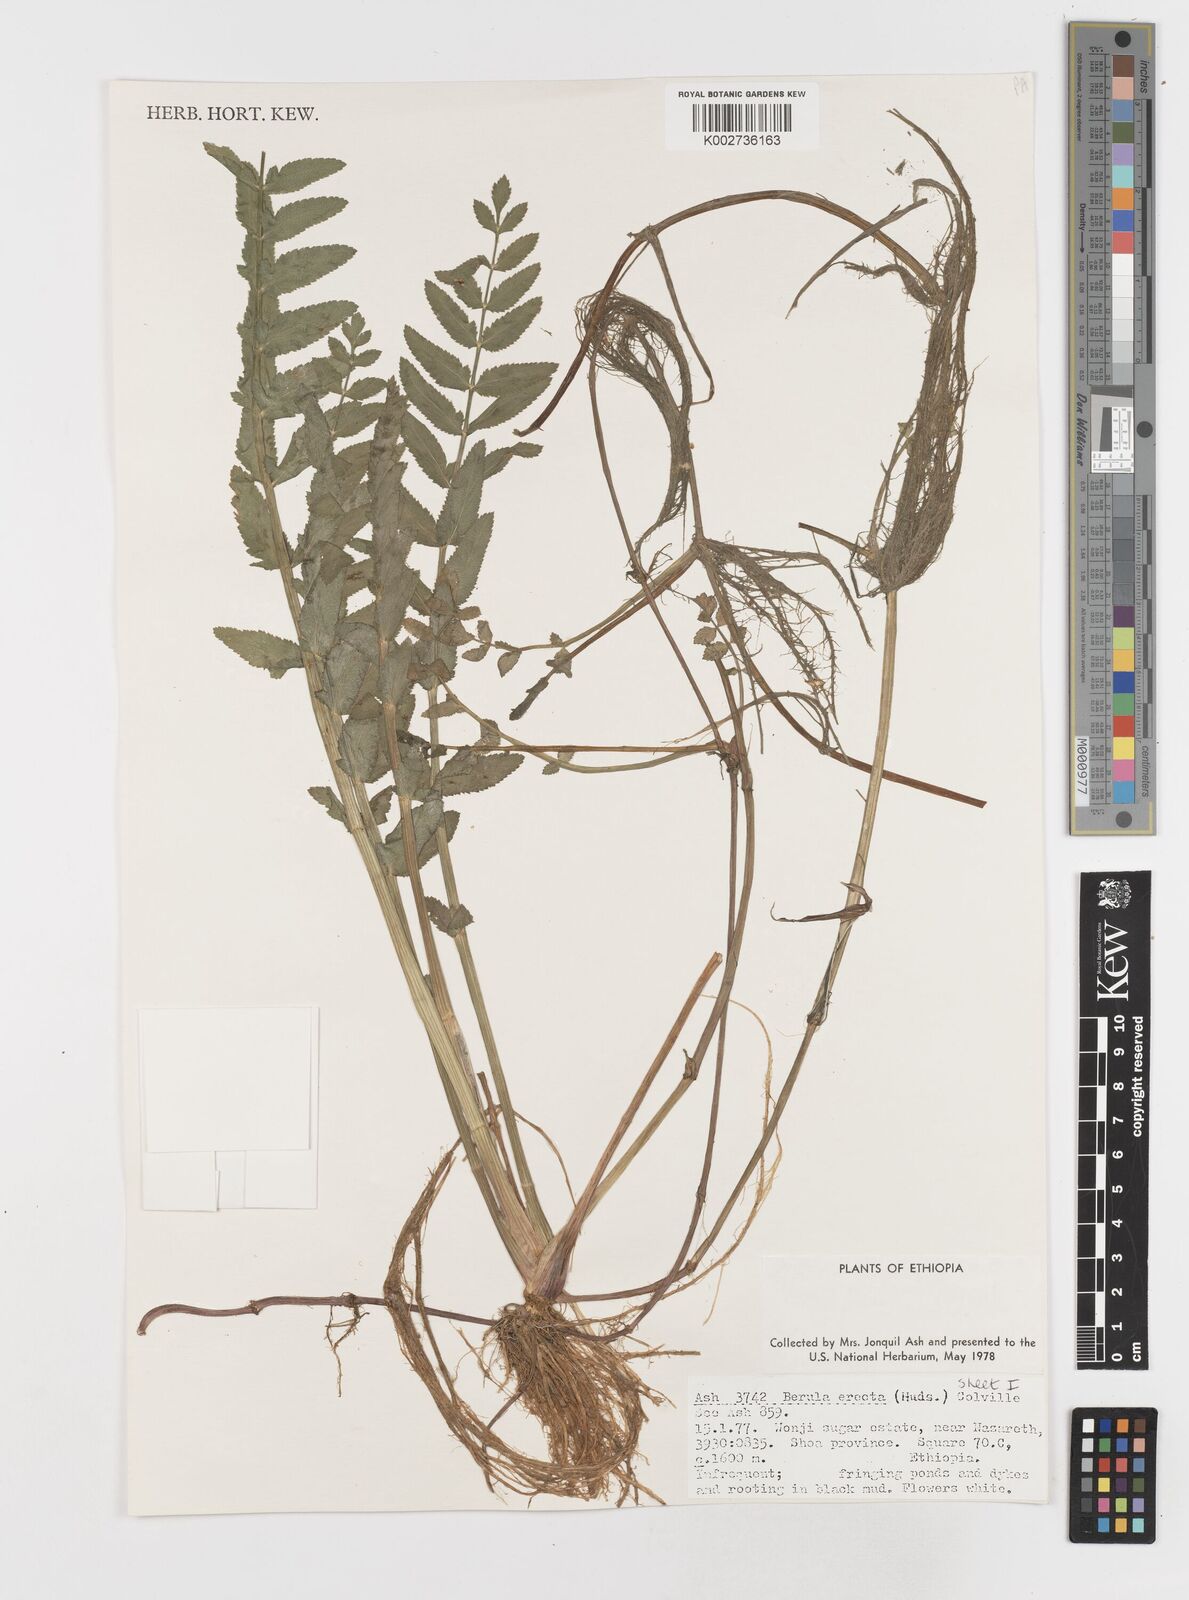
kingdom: Plantae
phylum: Tracheophyta
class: Magnoliopsida
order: Apiales
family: Apiaceae
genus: Berula
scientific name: Berula erecta
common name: Lesser water-parsnip
